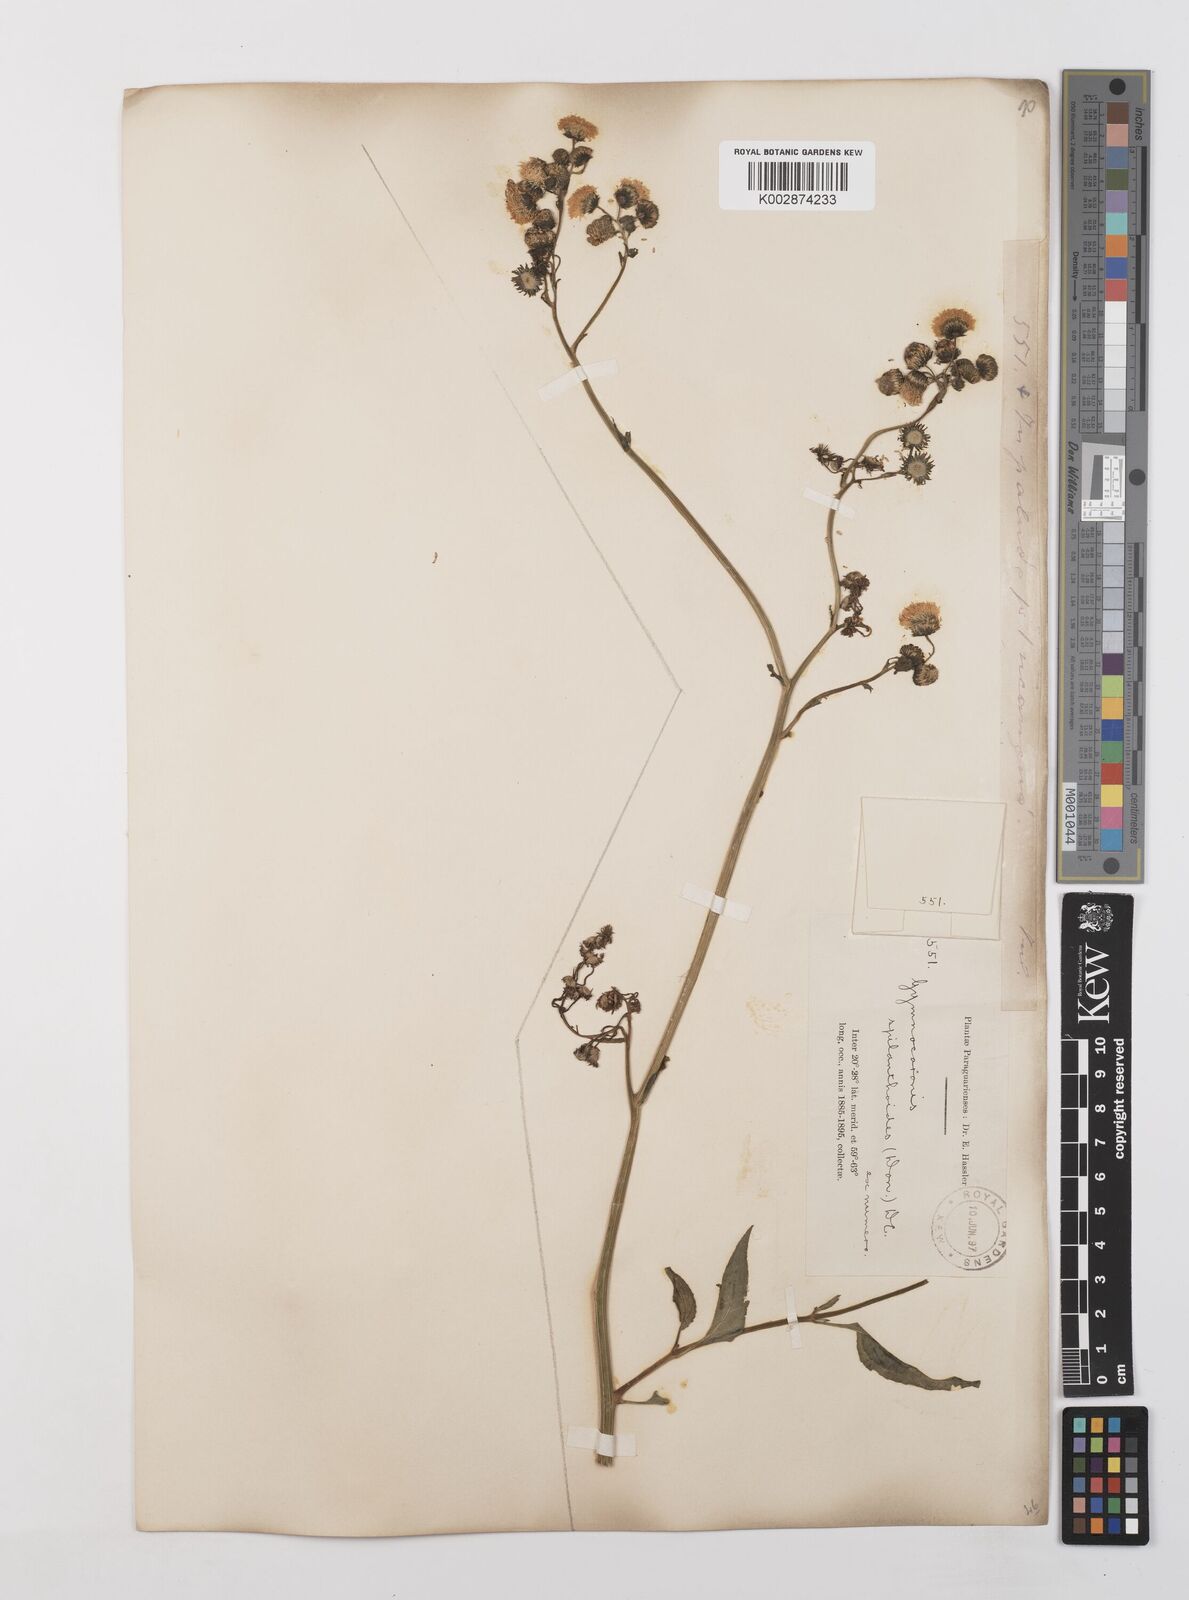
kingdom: Plantae
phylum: Tracheophyta
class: Magnoliopsida
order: Asterales
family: Asteraceae
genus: Gymnocoronis
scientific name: Gymnocoronis spilanthoides
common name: Senegal teaplant
